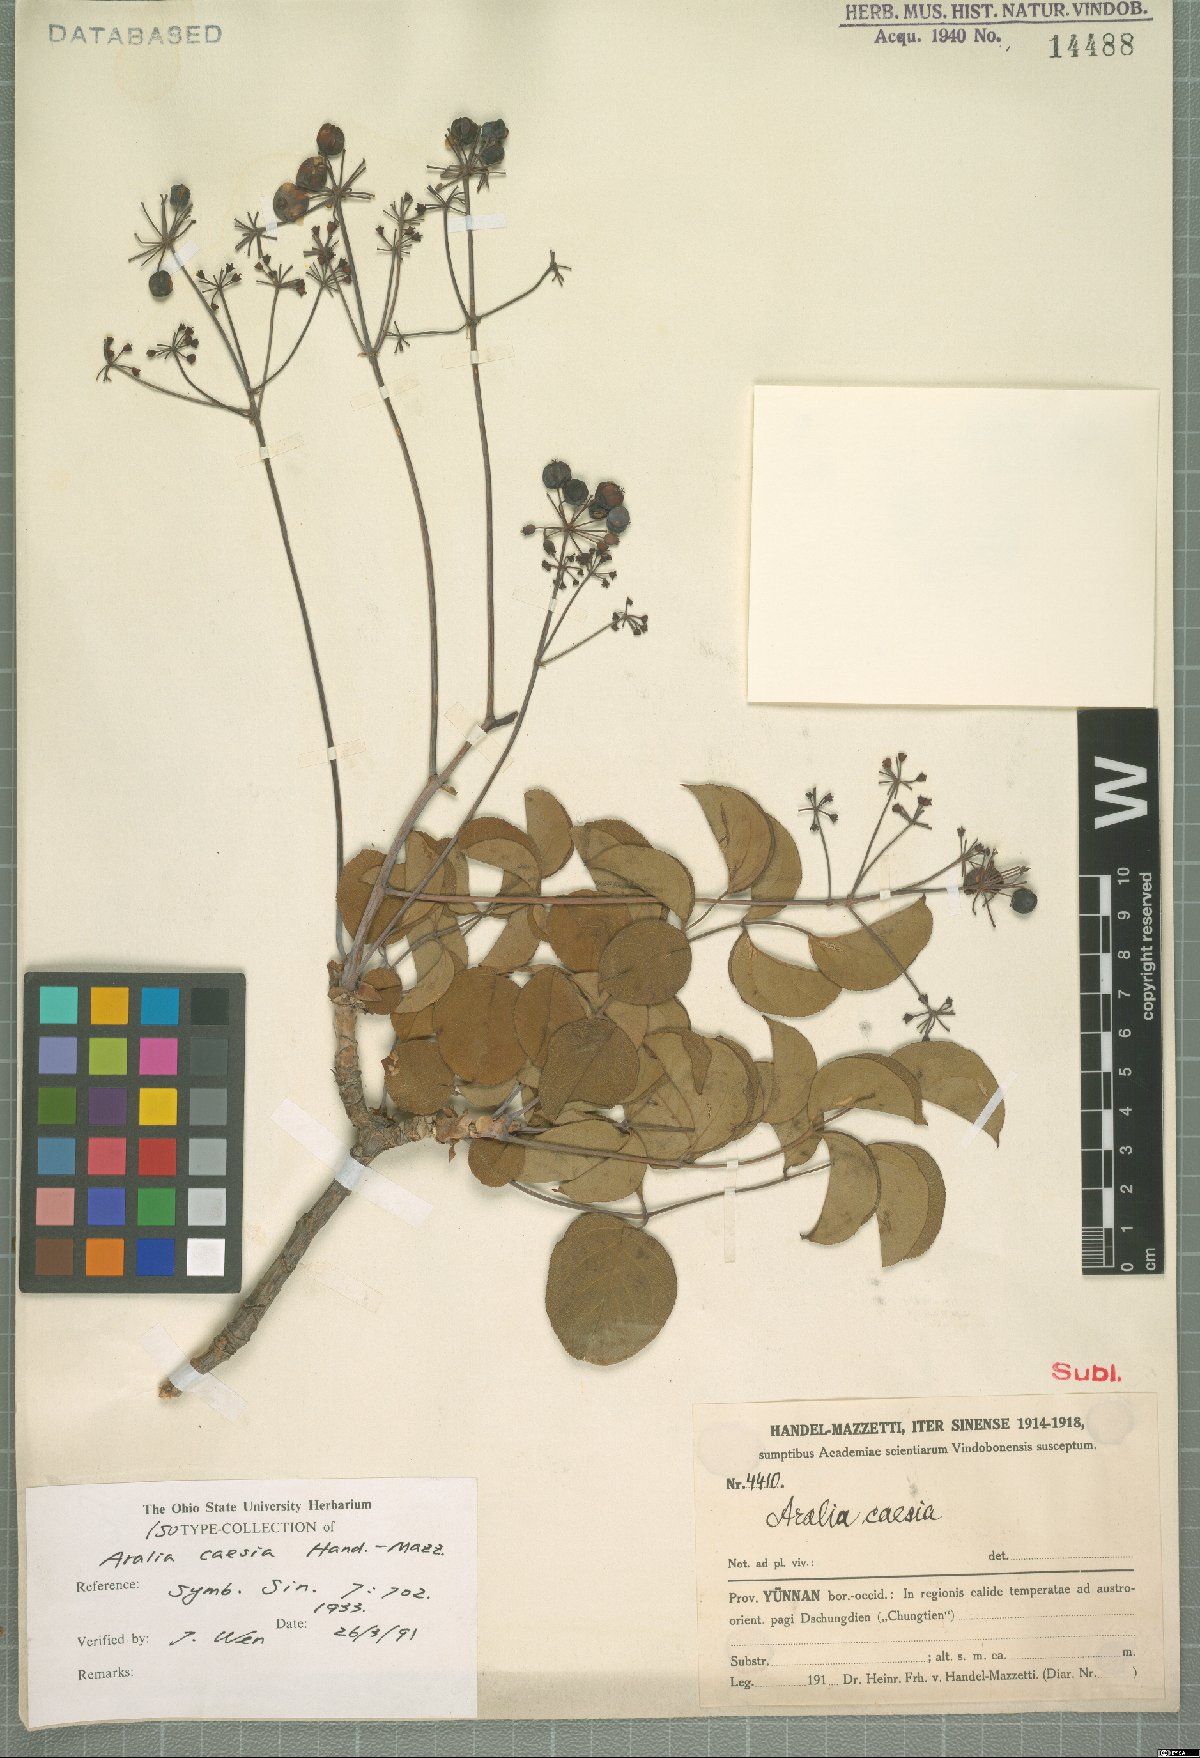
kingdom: Plantae
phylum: Tracheophyta
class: Magnoliopsida
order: Apiales
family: Araliaceae
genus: Aralia
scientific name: Aralia caesia
